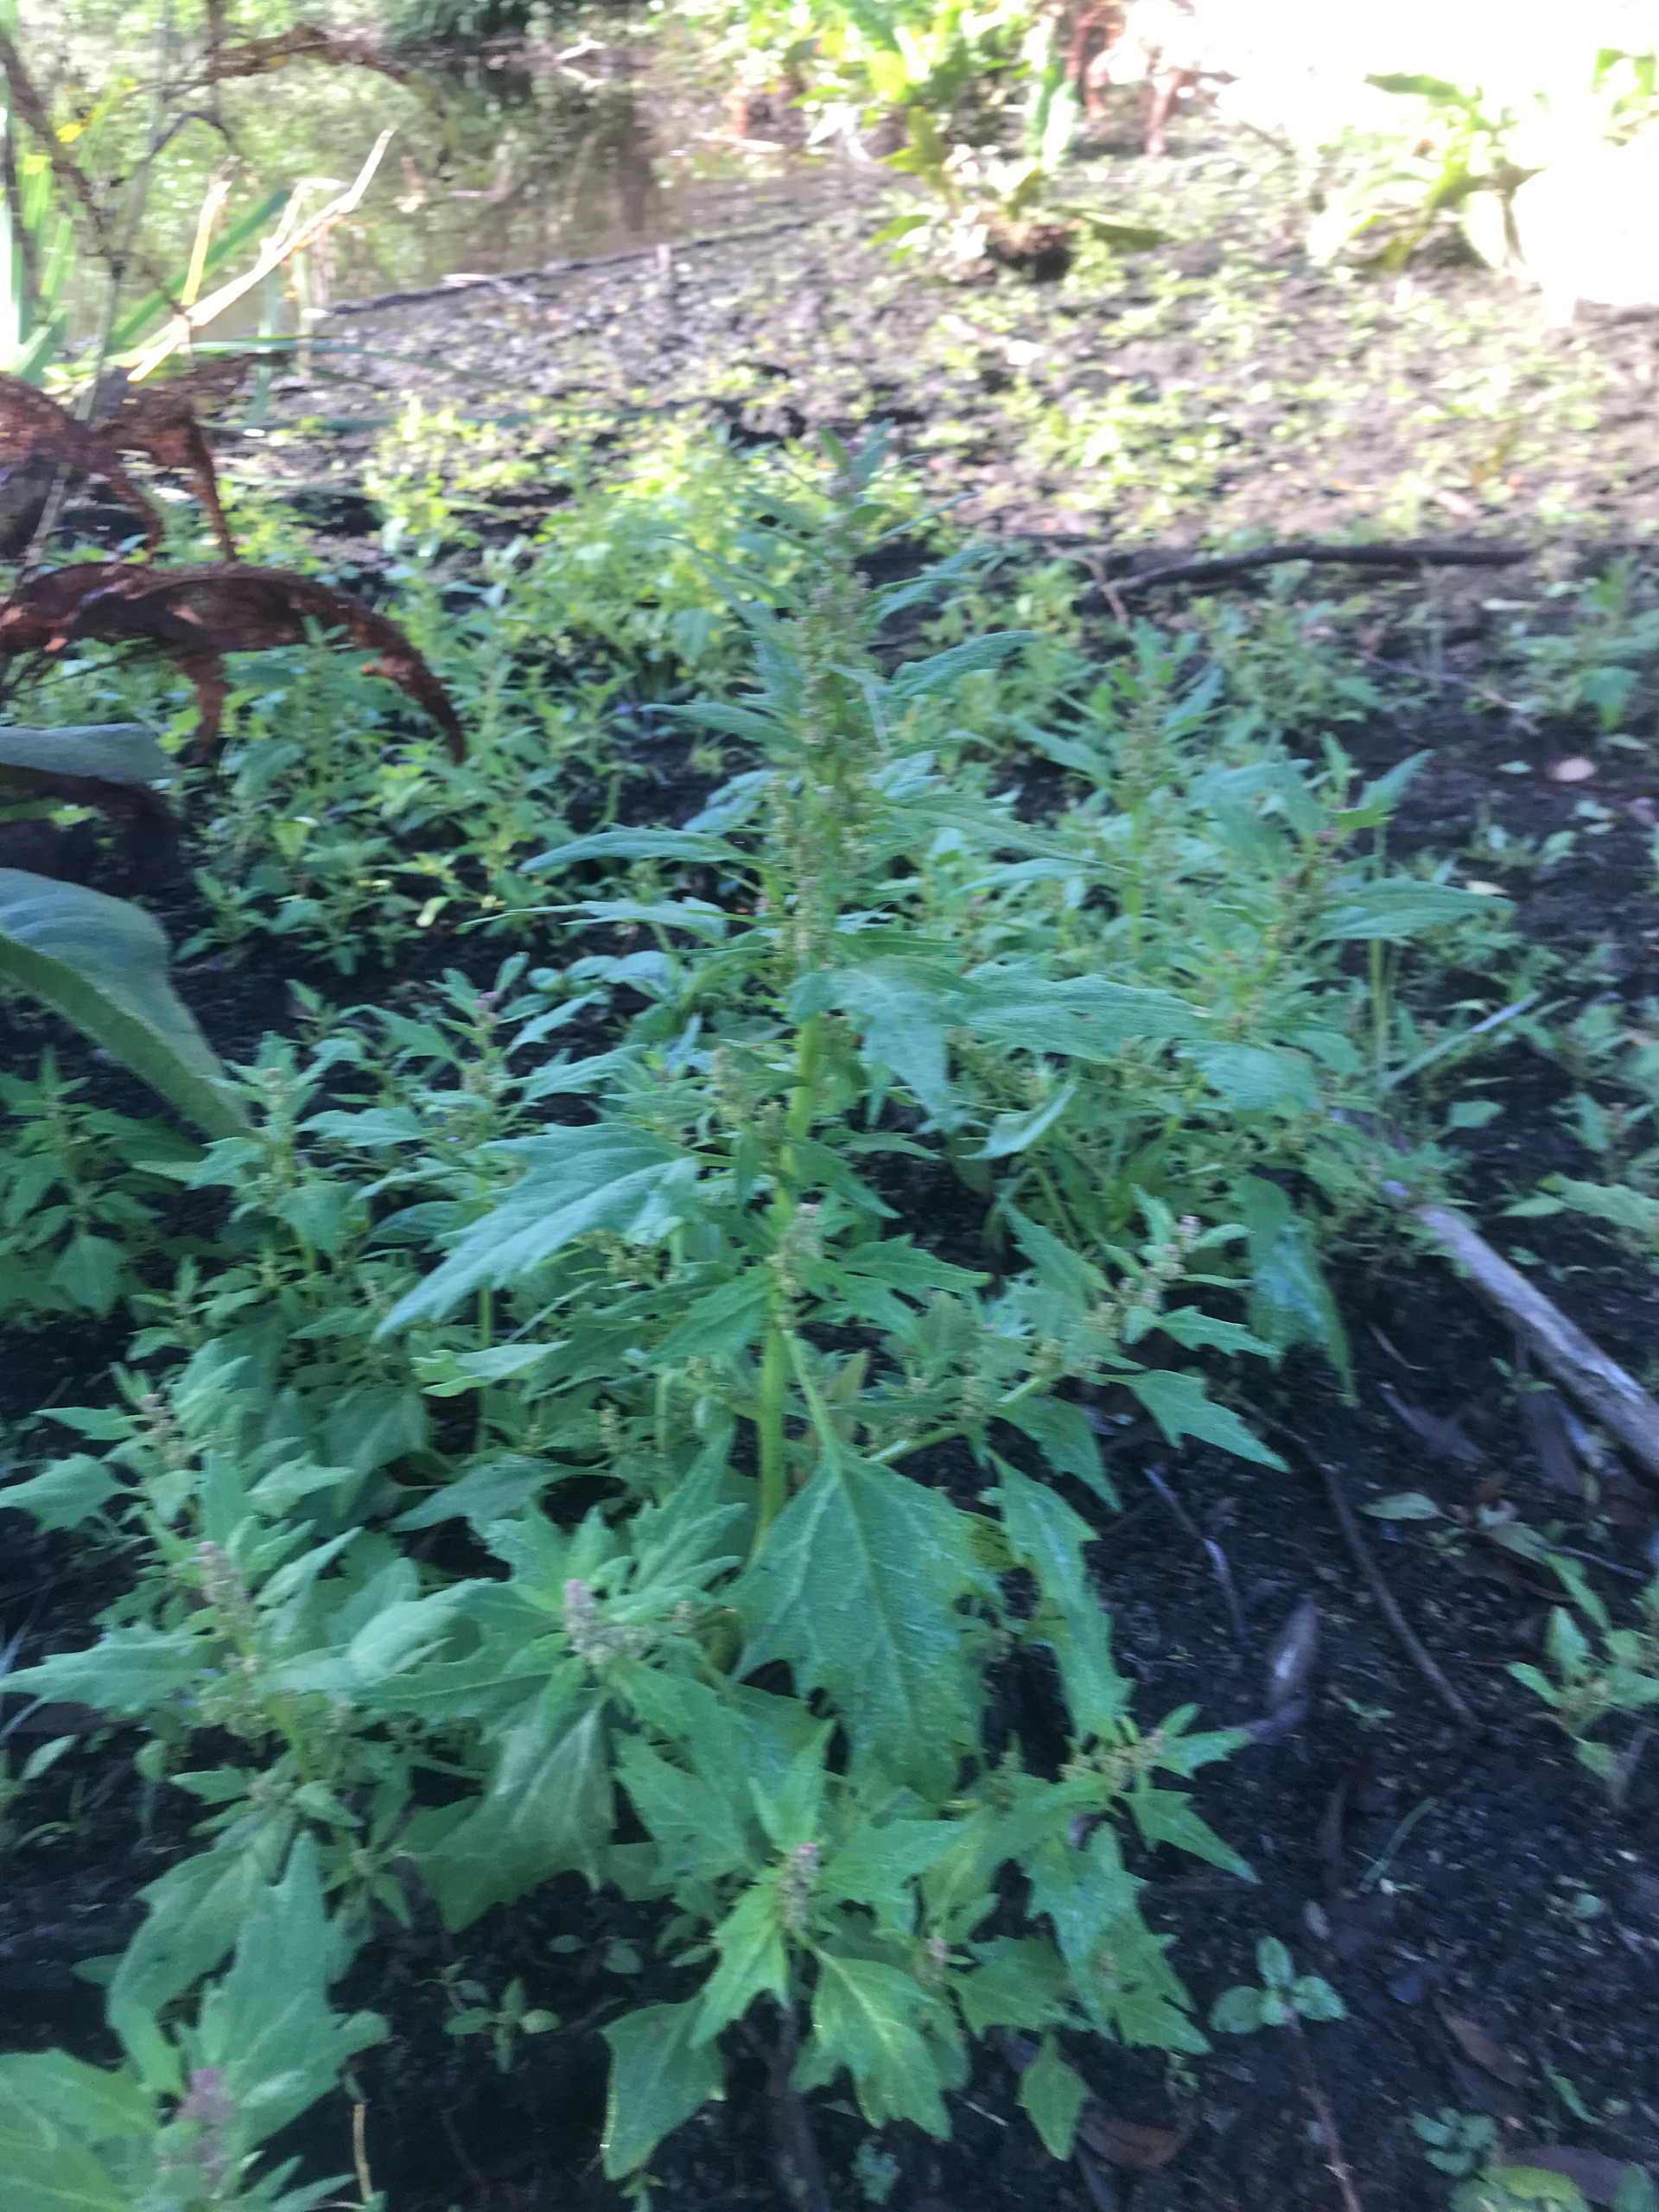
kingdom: Plantae
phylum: Tracheophyta
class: Magnoliopsida
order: Caryophyllales
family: Amaranthaceae
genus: Oxybasis
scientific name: Oxybasis rubra
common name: Rød gåsefod
